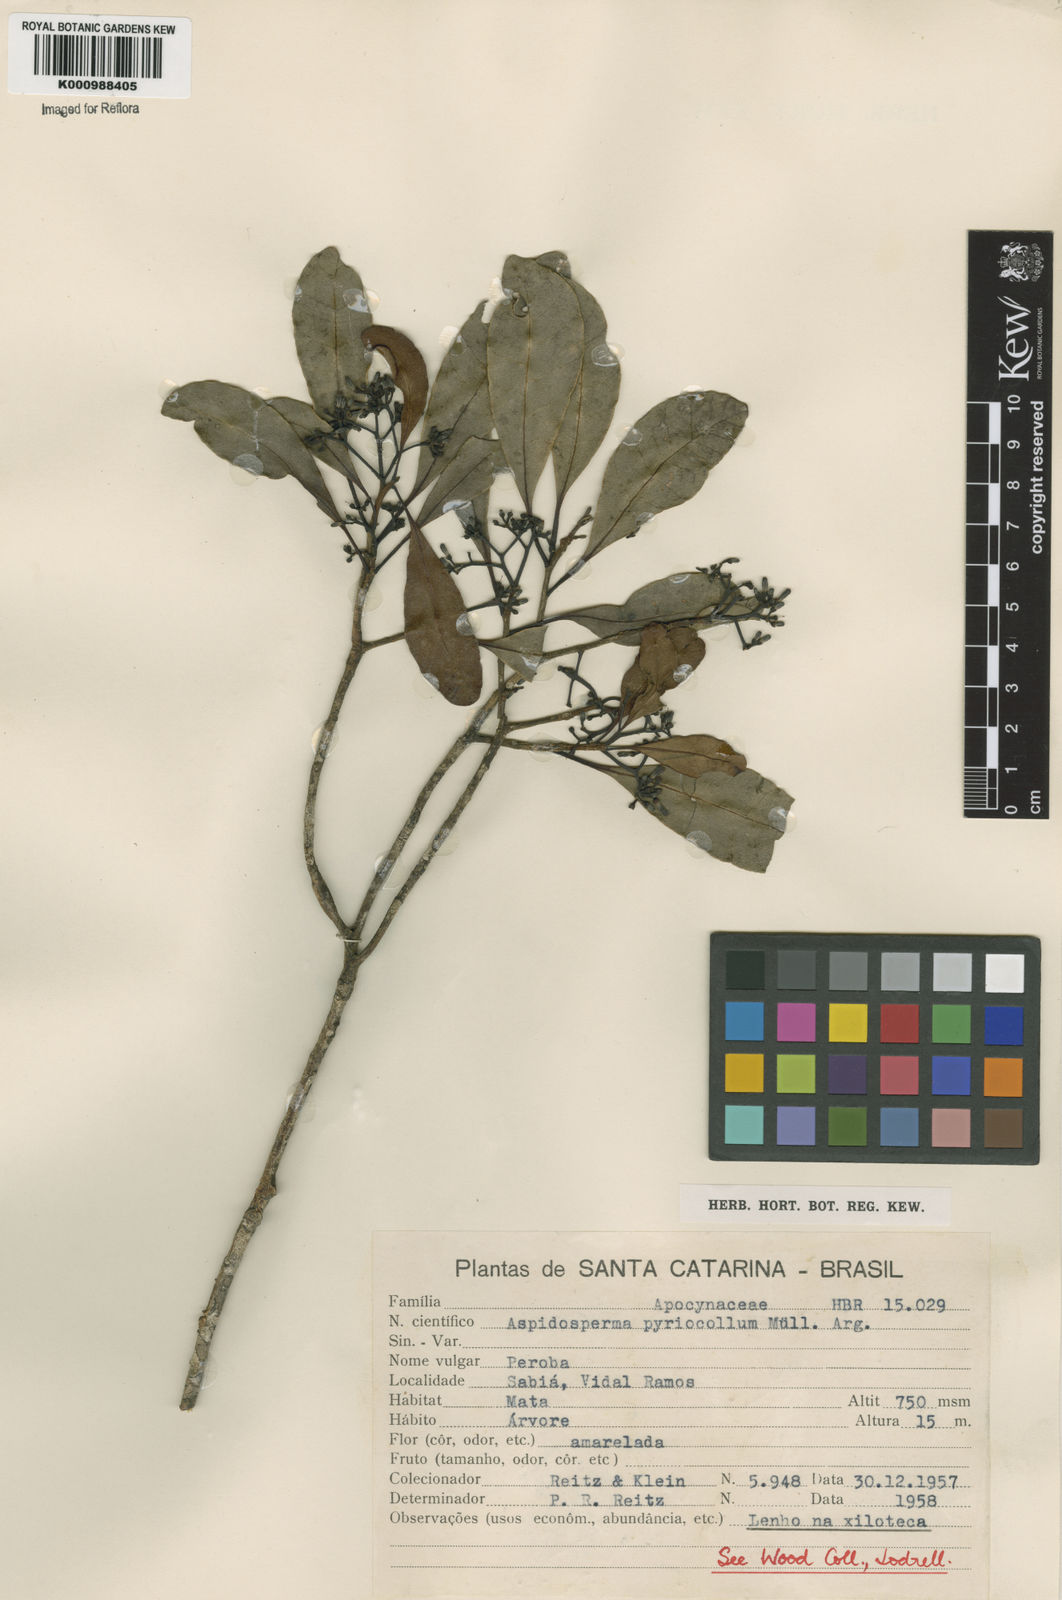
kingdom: Plantae
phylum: Tracheophyta
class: Magnoliopsida
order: Gentianales
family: Apocynaceae
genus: Aspidosperma
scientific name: Aspidosperma
